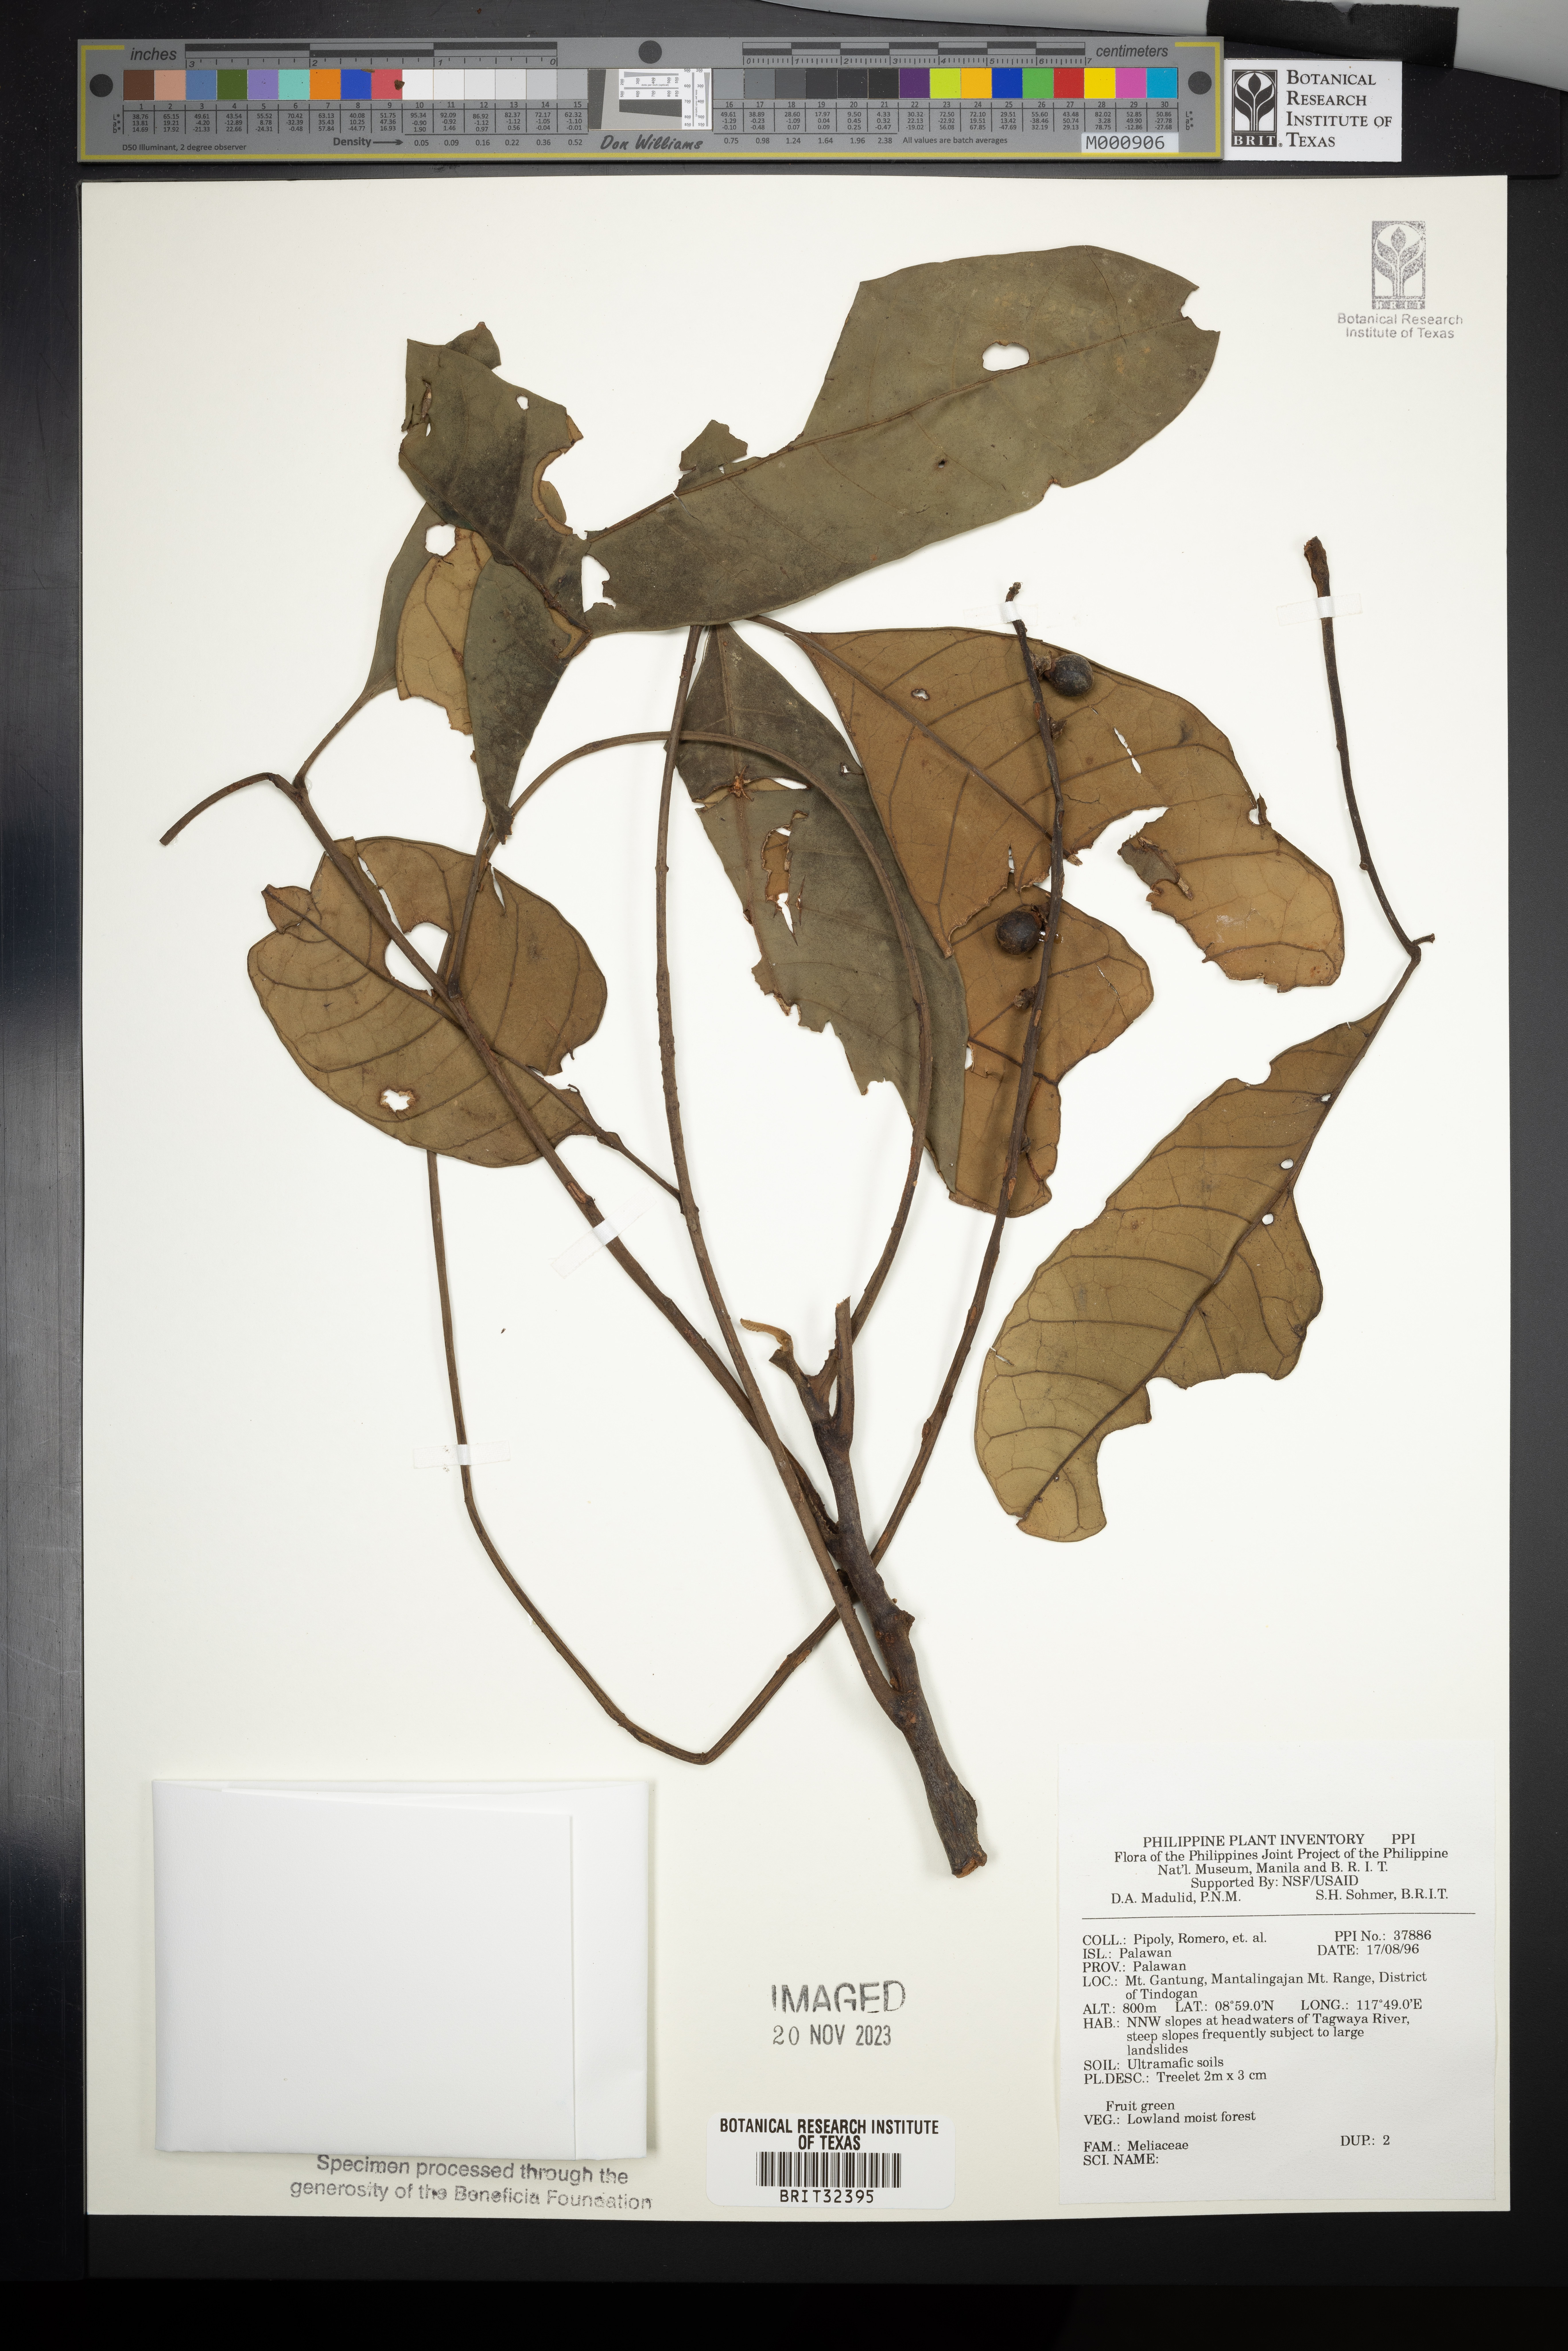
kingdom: Plantae
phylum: Tracheophyta
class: Magnoliopsida
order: Sapindales
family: Meliaceae
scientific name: Meliaceae
